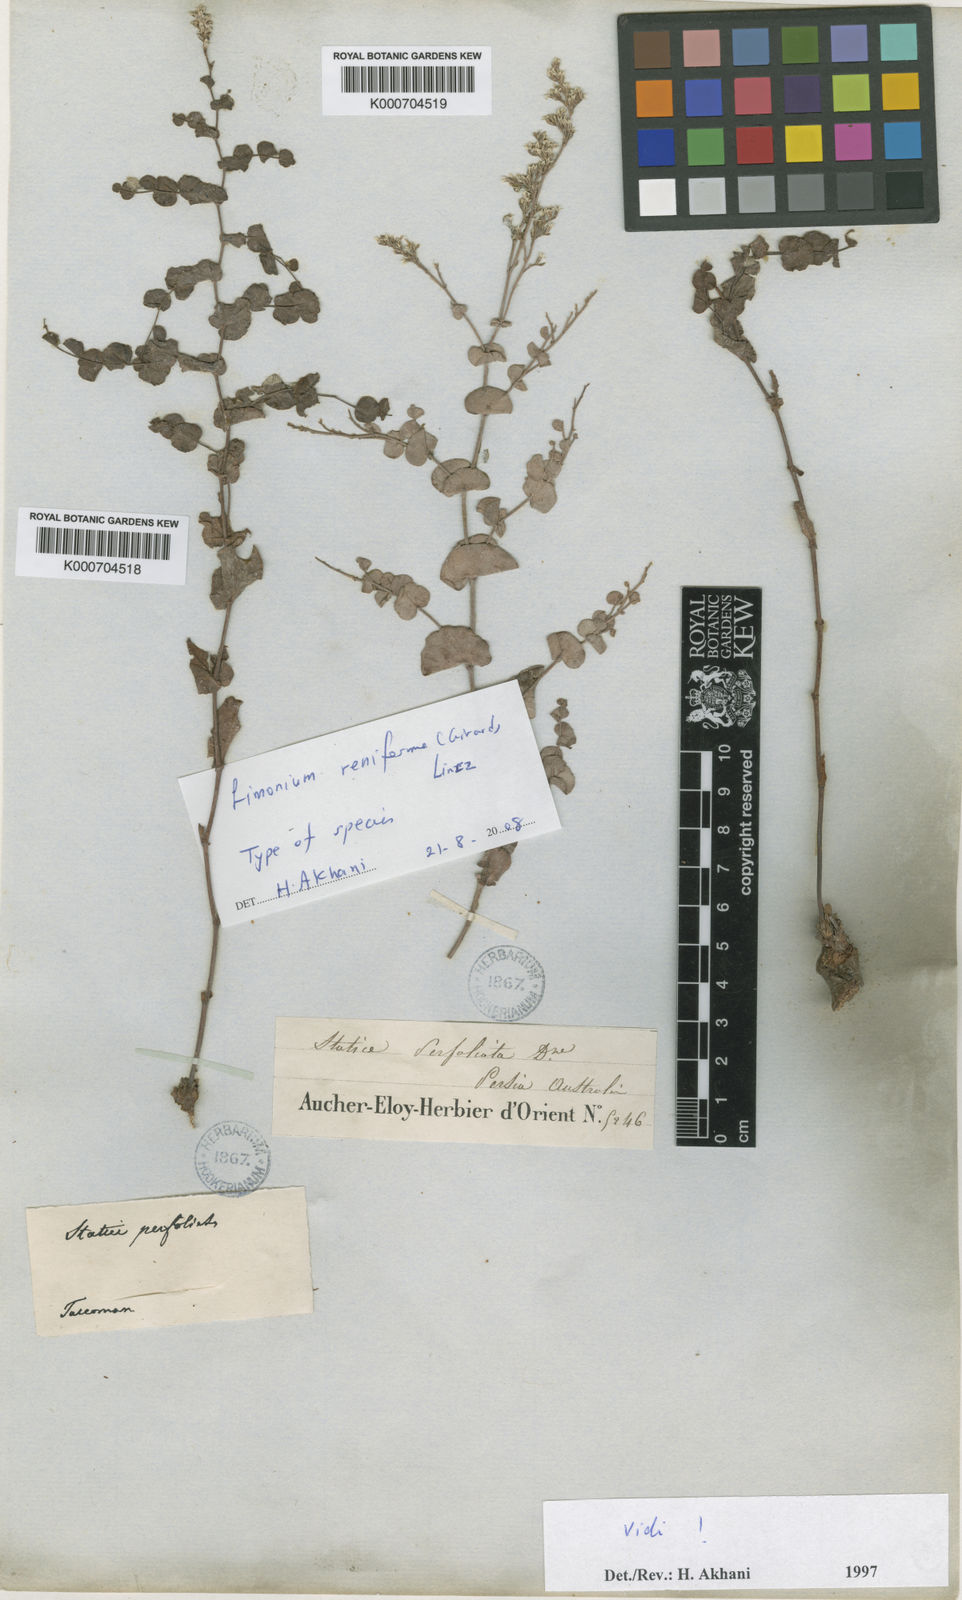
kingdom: Plantae
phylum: Tracheophyta
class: Magnoliopsida
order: Caryophyllales
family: Plumbaginaceae
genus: Limonium
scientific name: Limonium reniforme
